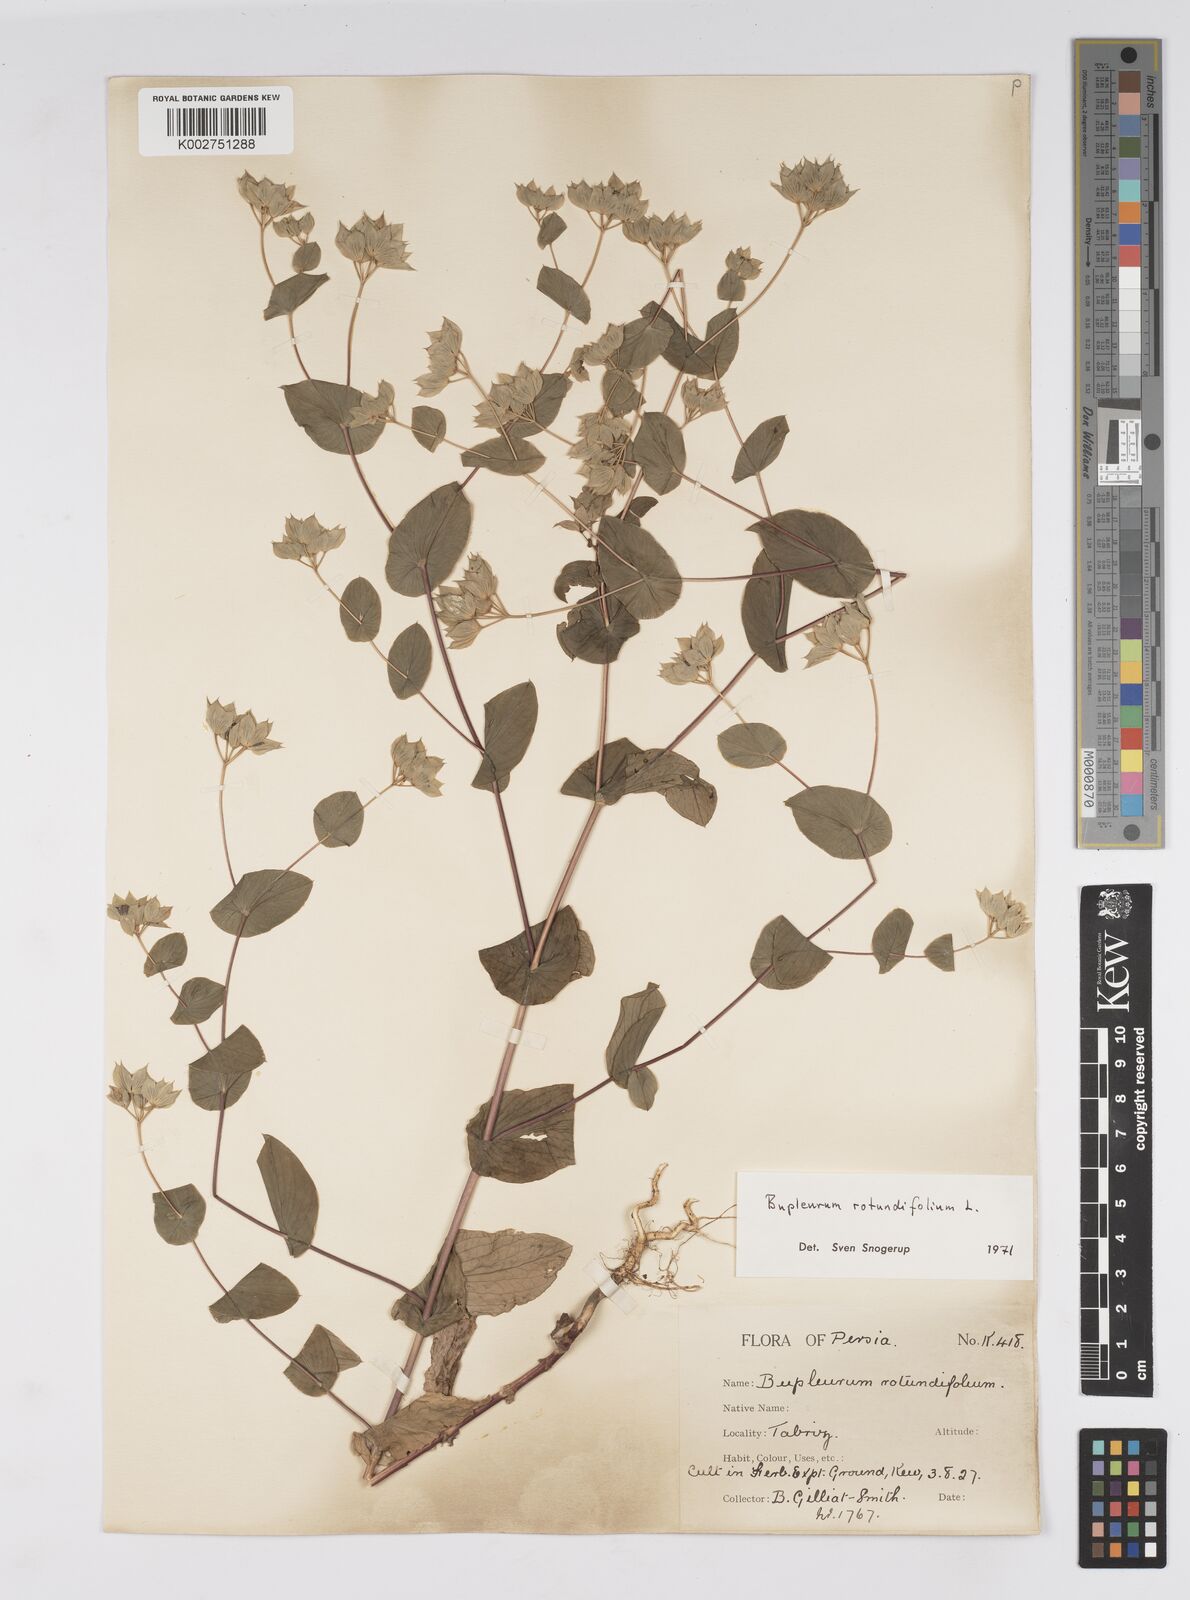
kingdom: Plantae
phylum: Tracheophyta
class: Magnoliopsida
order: Apiales
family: Apiaceae
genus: Bupleurum
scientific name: Bupleurum rotundifolium
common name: Thorow-wax
